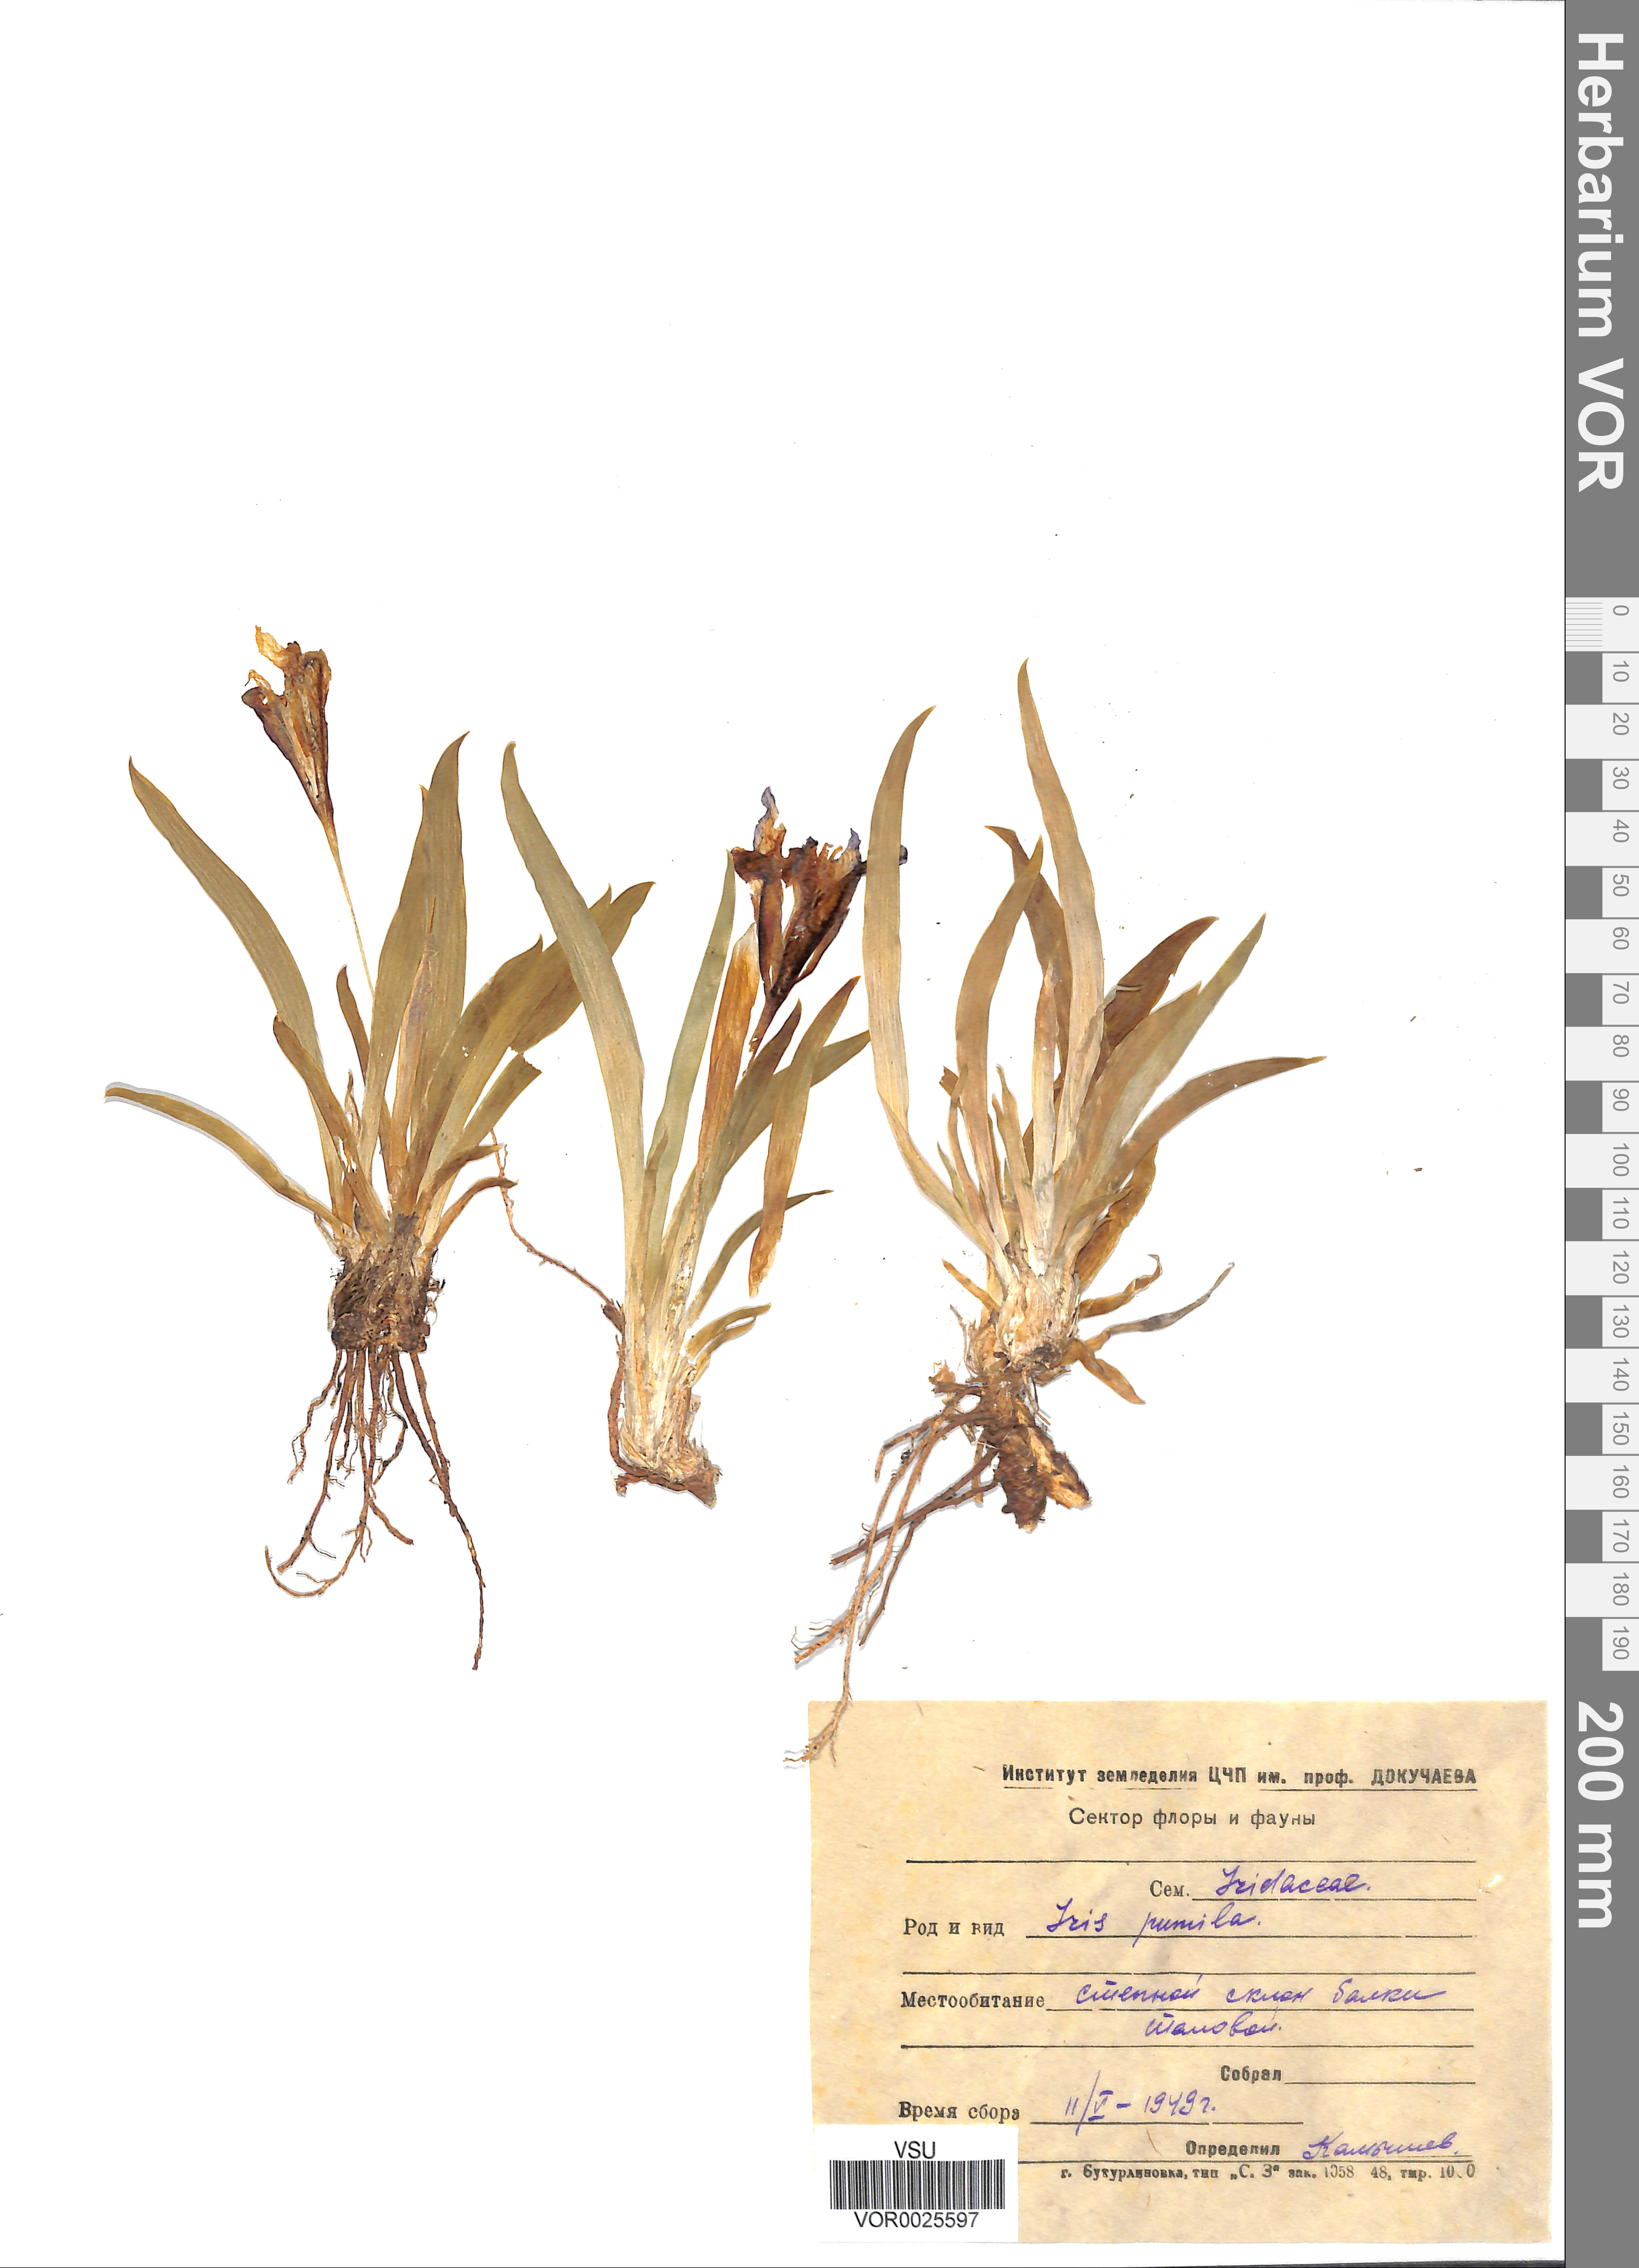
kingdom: Plantae
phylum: Tracheophyta
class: Liliopsida
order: Asparagales
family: Iridaceae
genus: Iris
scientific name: Iris pumila
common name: Dwarf iris
